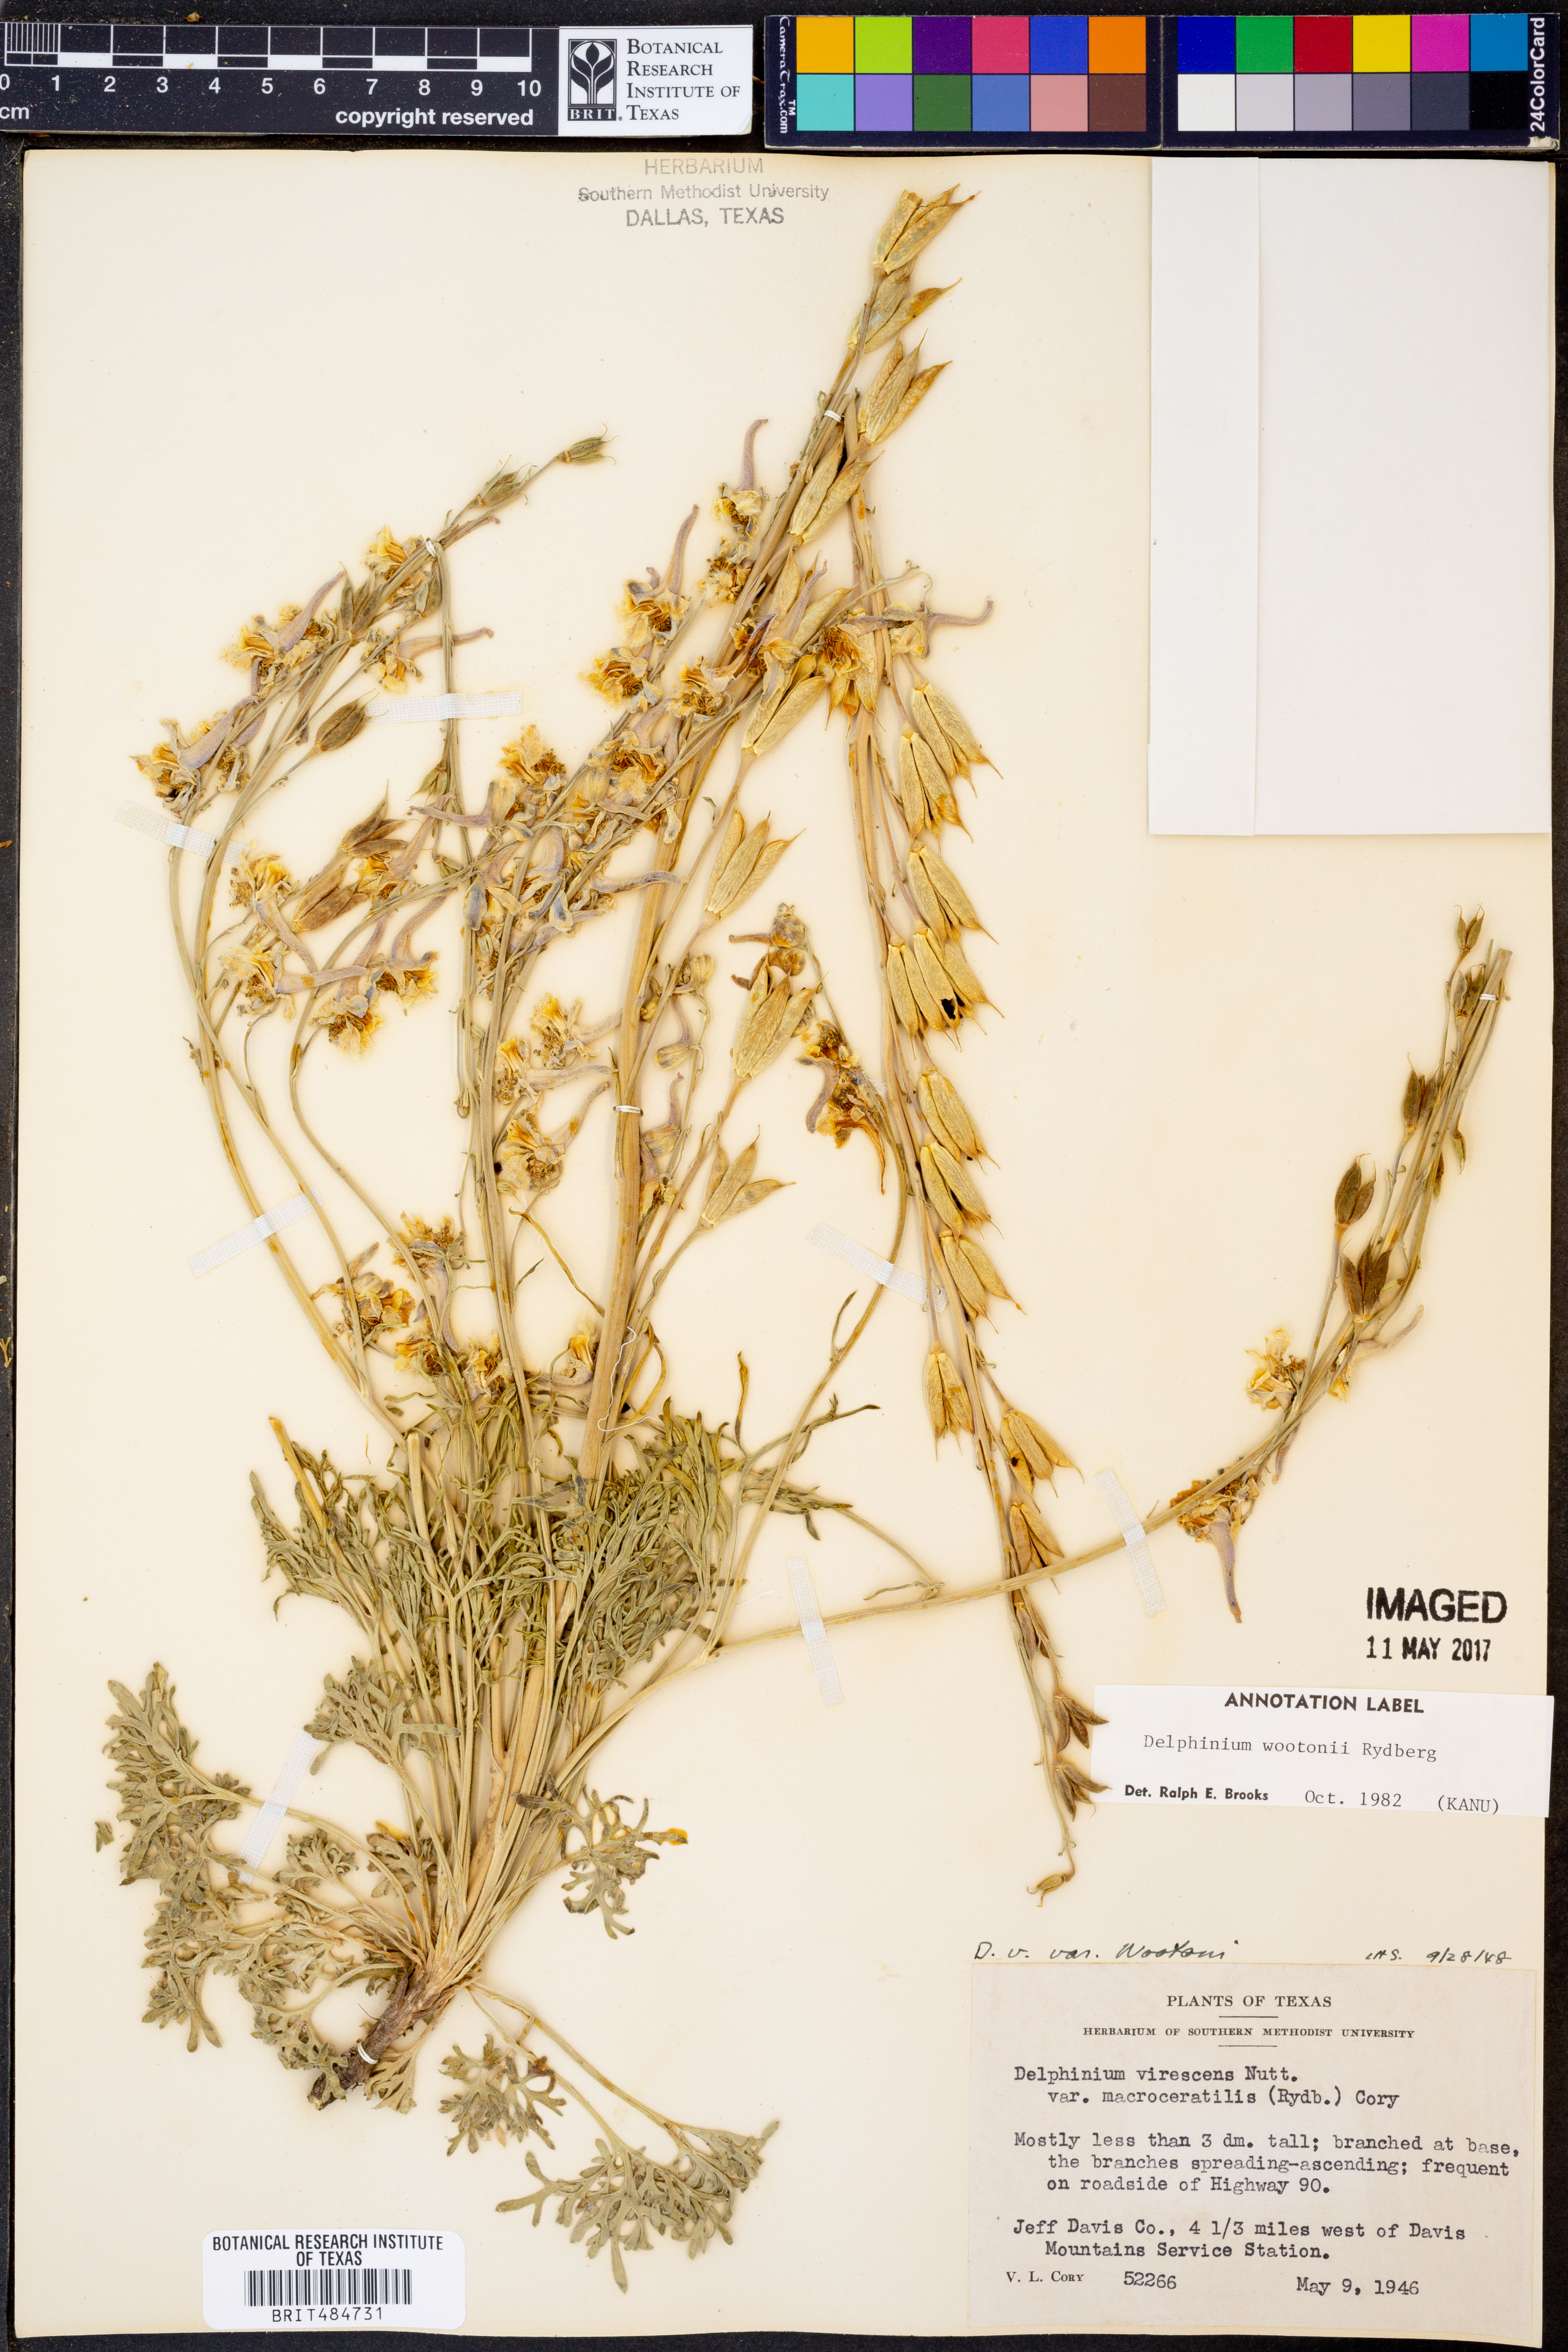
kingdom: Plantae
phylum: Tracheophyta
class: Magnoliopsida
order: Ranunculales
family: Ranunculaceae
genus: Delphinium
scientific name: Delphinium wootonii
